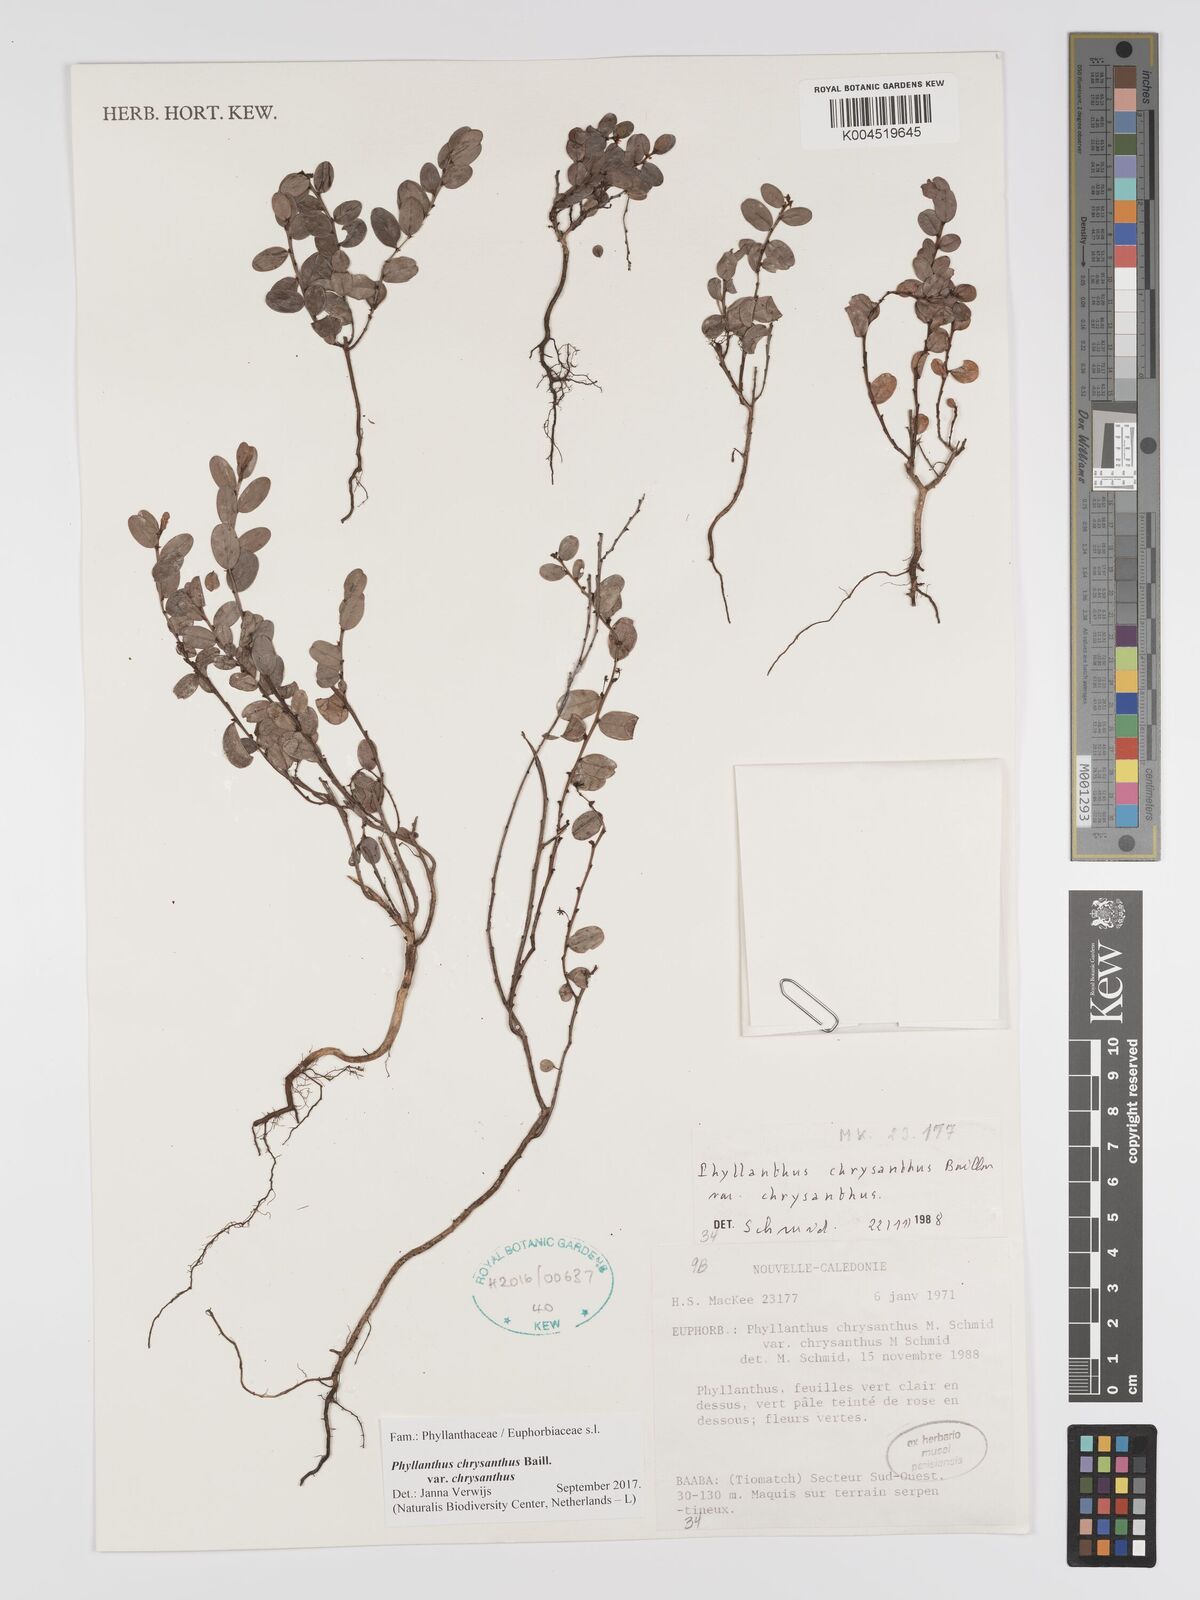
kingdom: Plantae
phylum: Tracheophyta
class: Magnoliopsida
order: Malpighiales
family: Phyllanthaceae
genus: Phyllanthus
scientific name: Phyllanthus chrysanthus
